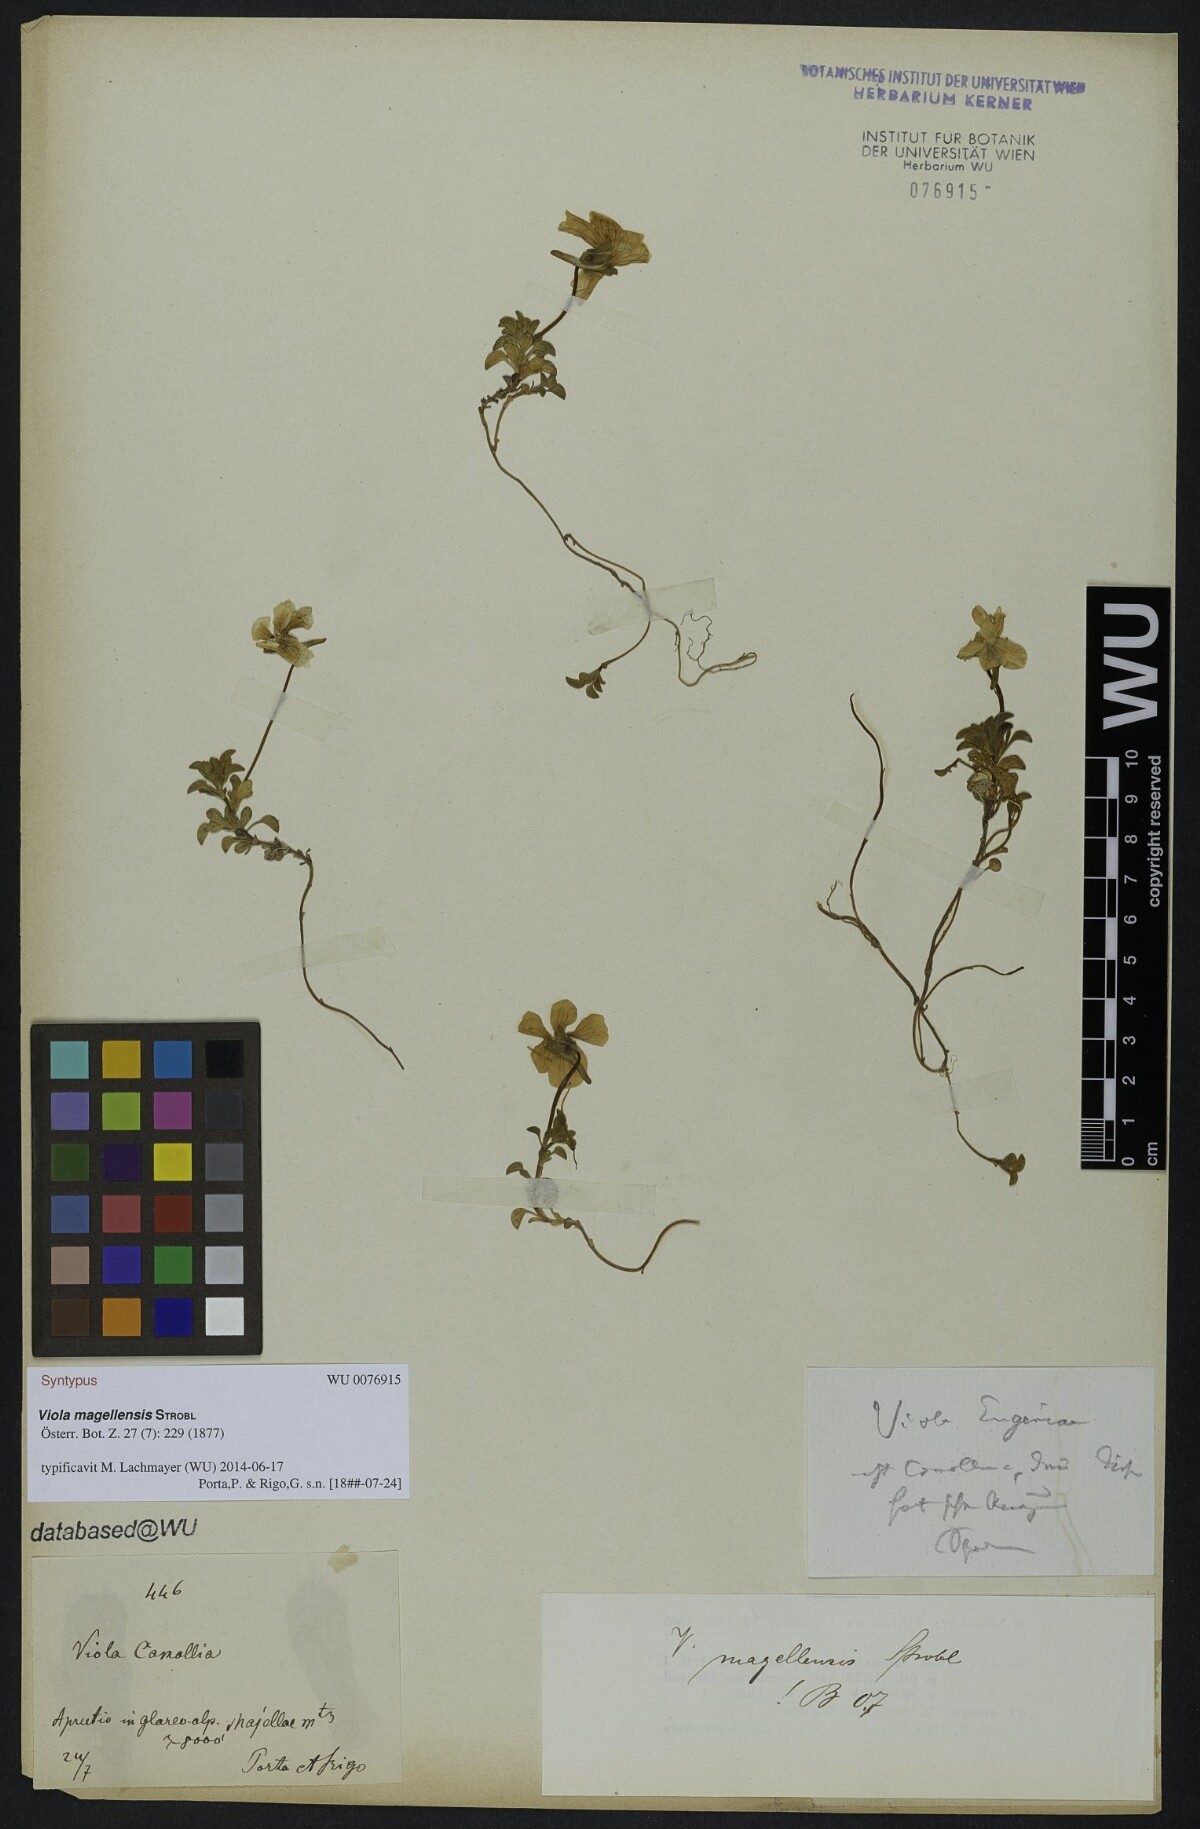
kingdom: Plantae
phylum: Tracheophyta
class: Magnoliopsida
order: Malpighiales
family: Violaceae
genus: Viola
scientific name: Viola magellensis
